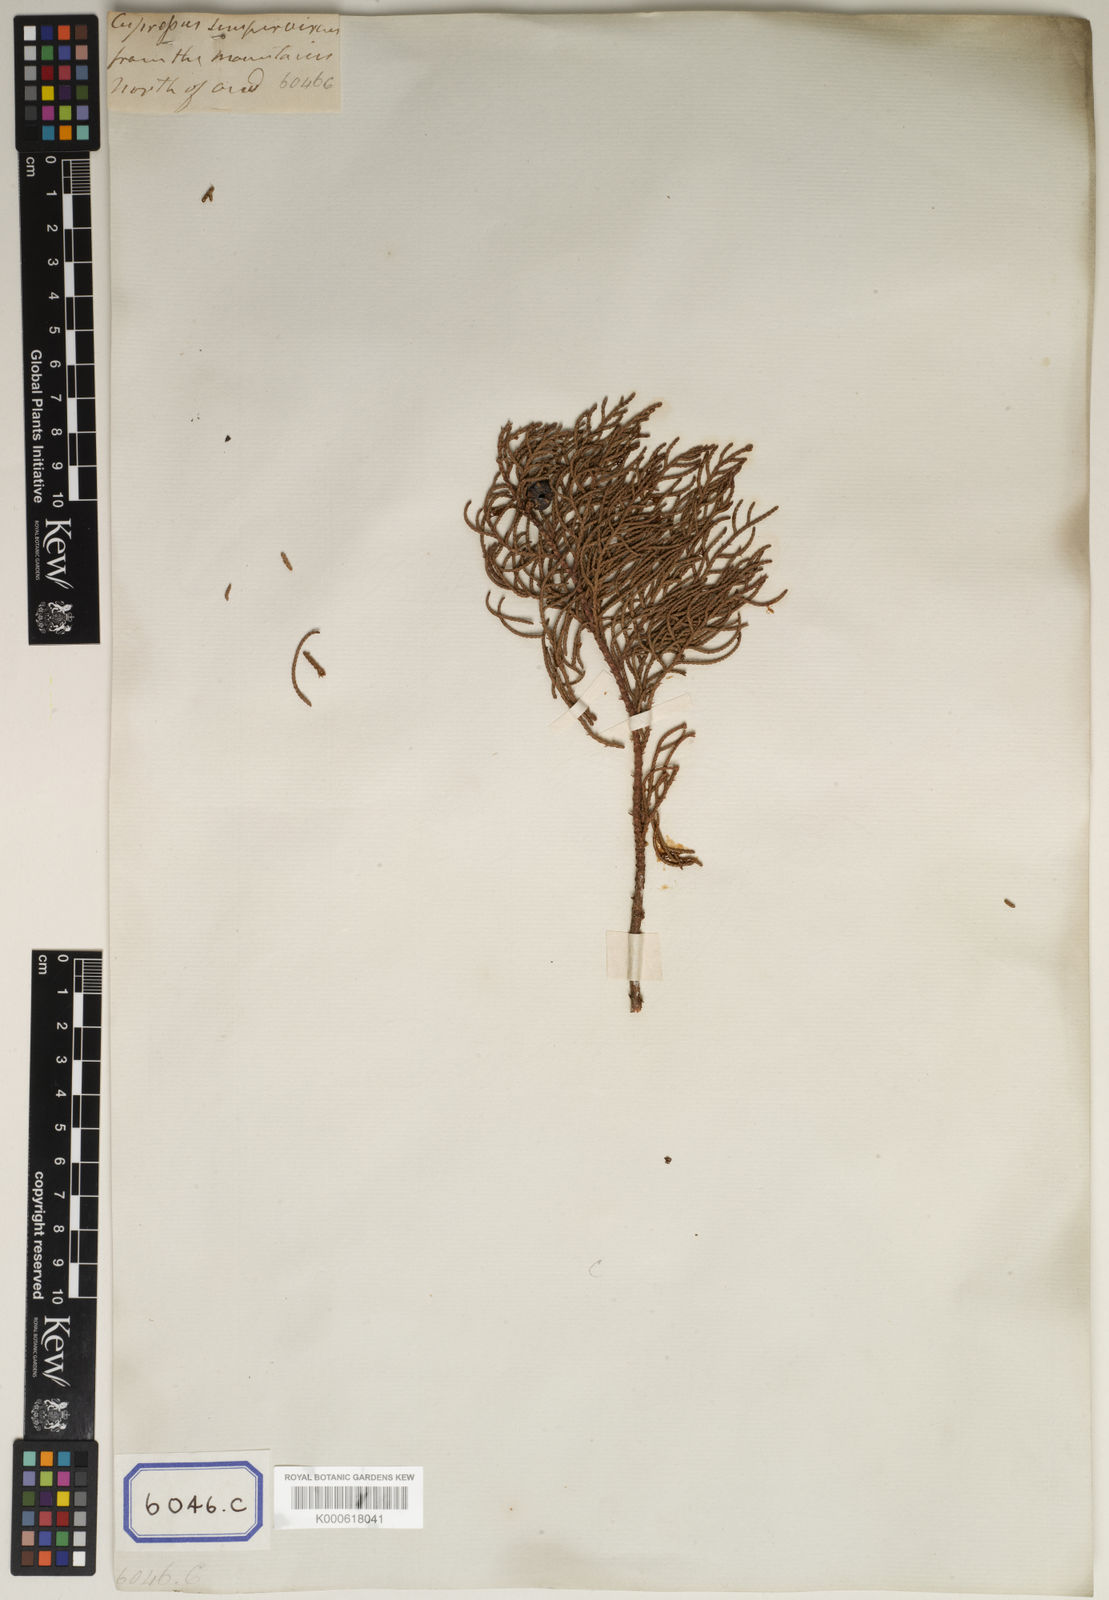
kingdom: Plantae
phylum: Tracheophyta
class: Pinopsida
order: Pinales
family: Cupressaceae
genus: Cupressus
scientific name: Cupressus torulosa
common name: Himalayan cypress
